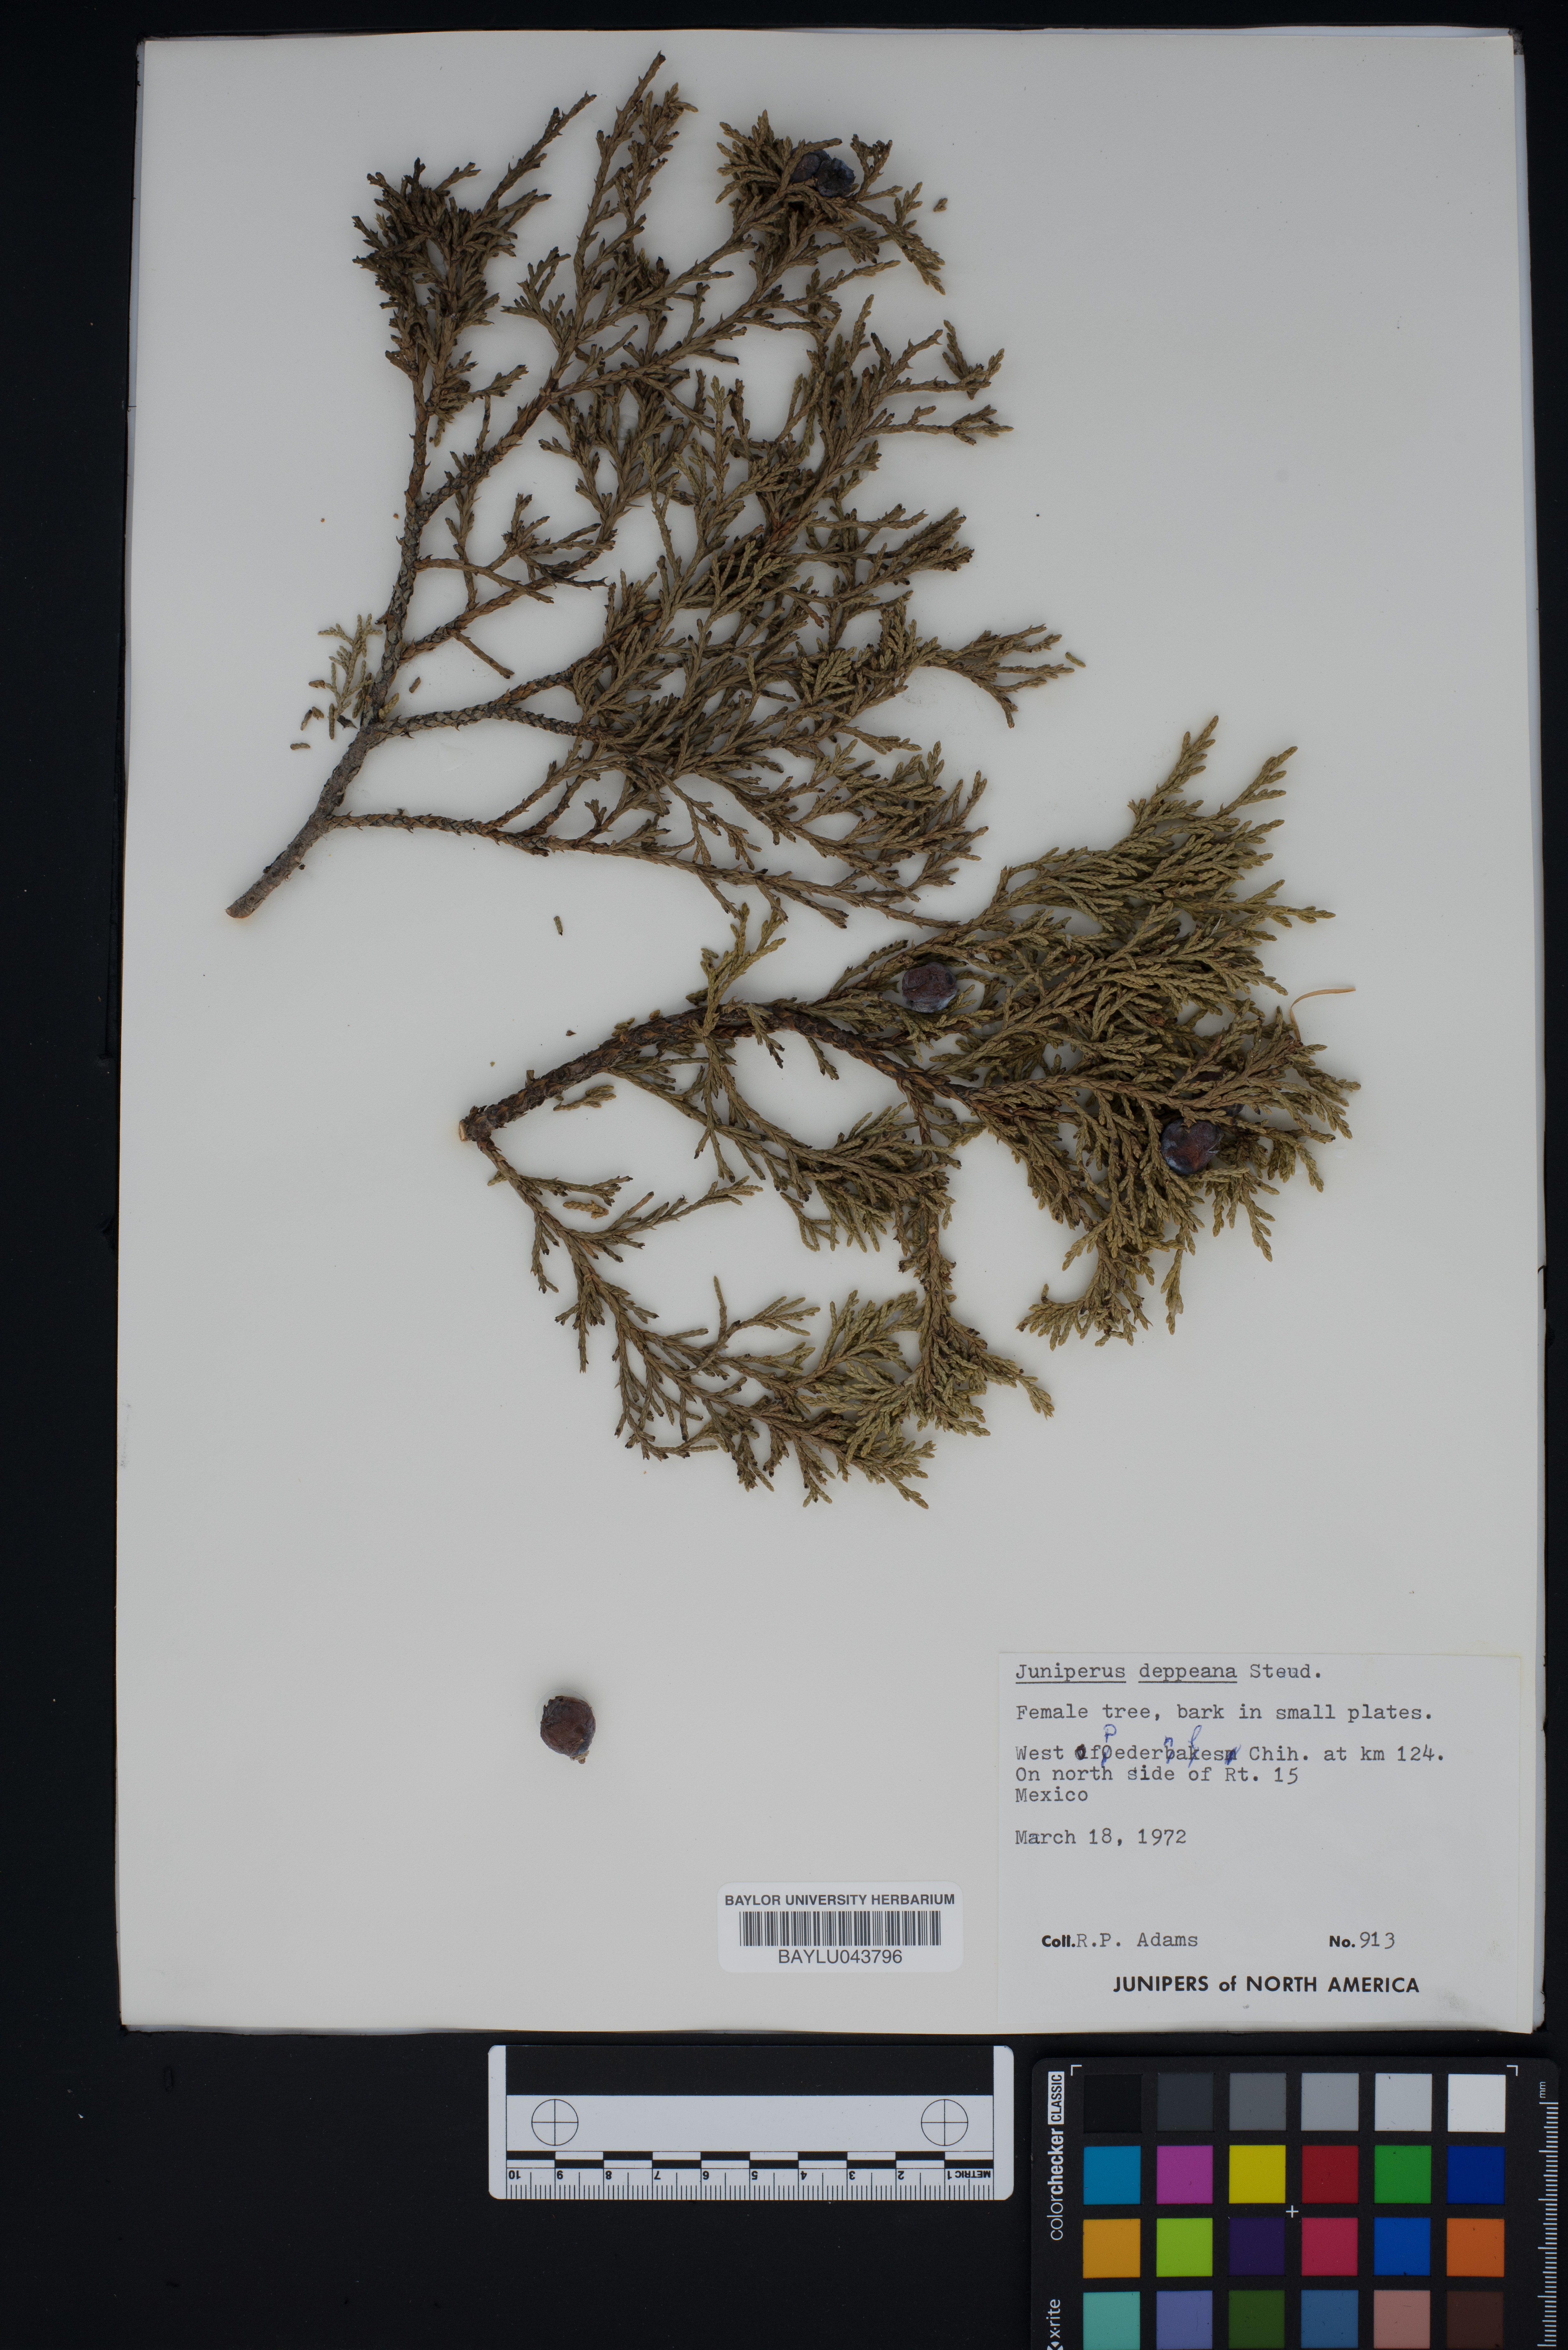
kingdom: Plantae
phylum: Tracheophyta
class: Pinopsida
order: Pinales
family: Cupressaceae
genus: Juniperus
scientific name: Juniperus deppeana
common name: Alligator juniper
